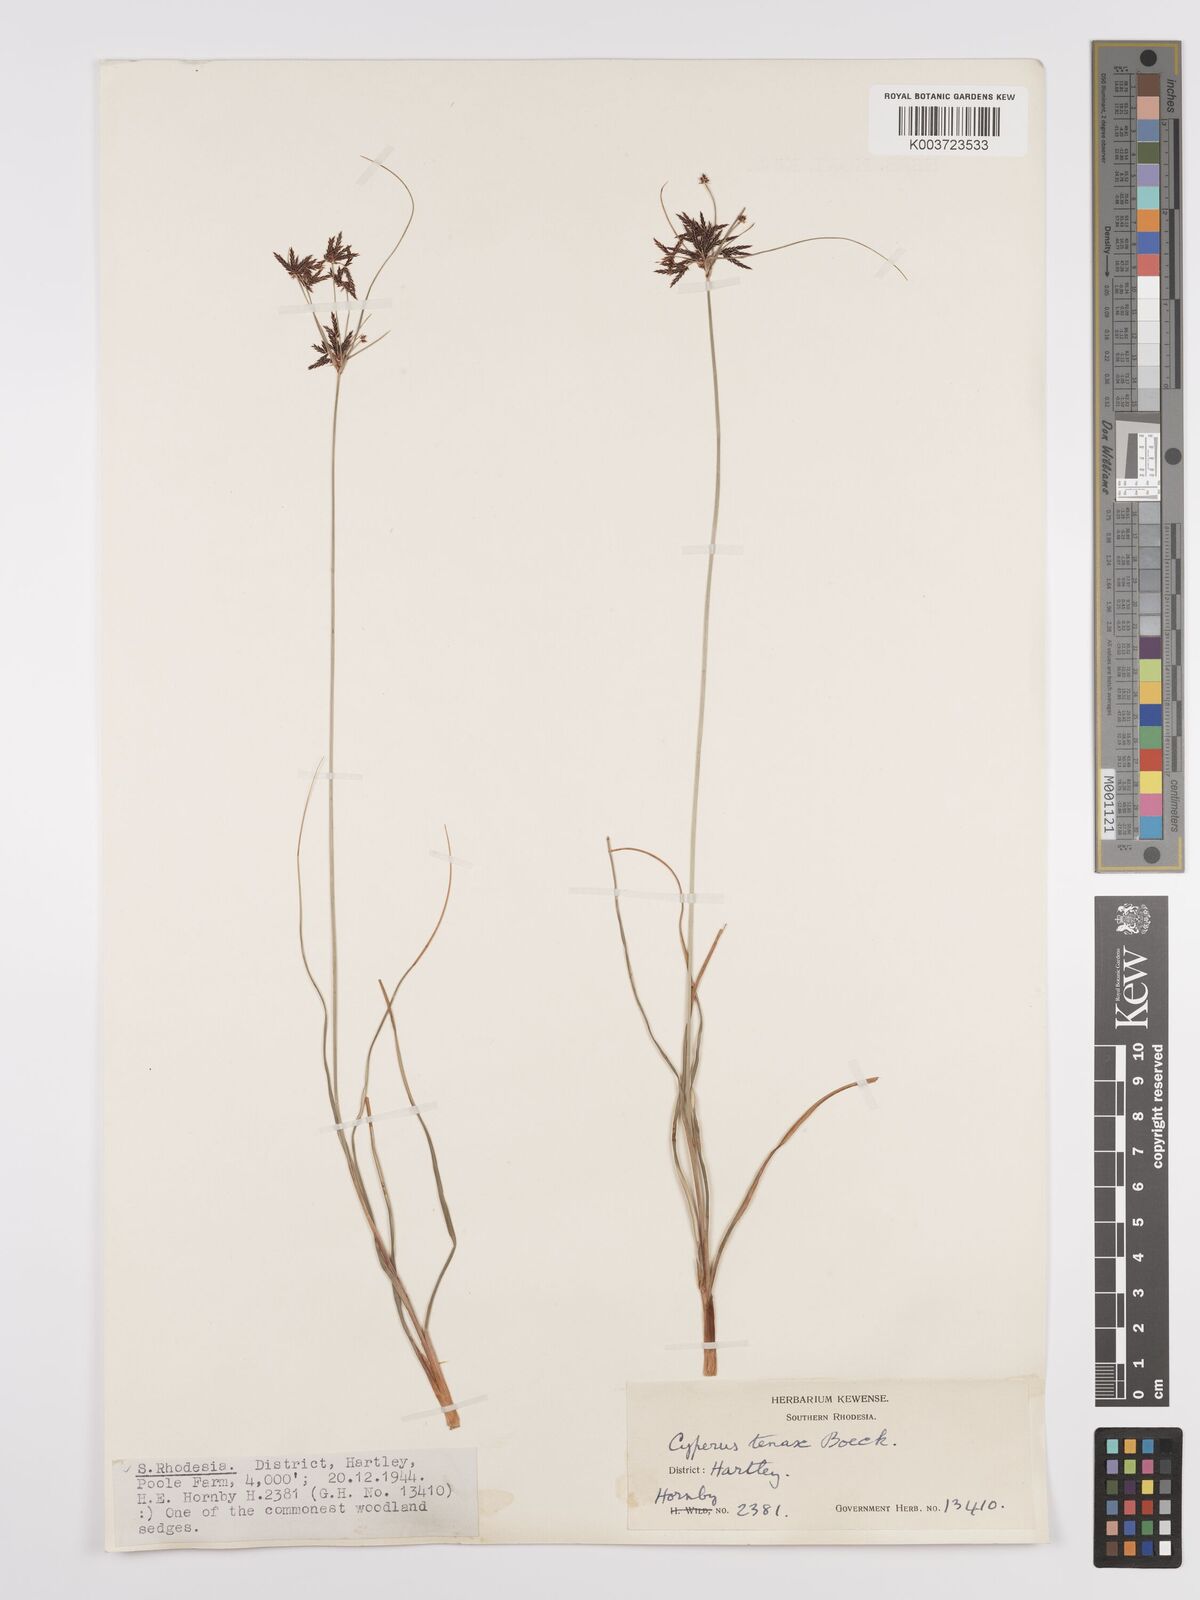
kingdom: Plantae
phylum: Tracheophyta
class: Liliopsida
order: Poales
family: Cyperaceae
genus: Cyperus
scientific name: Cyperus tenax
